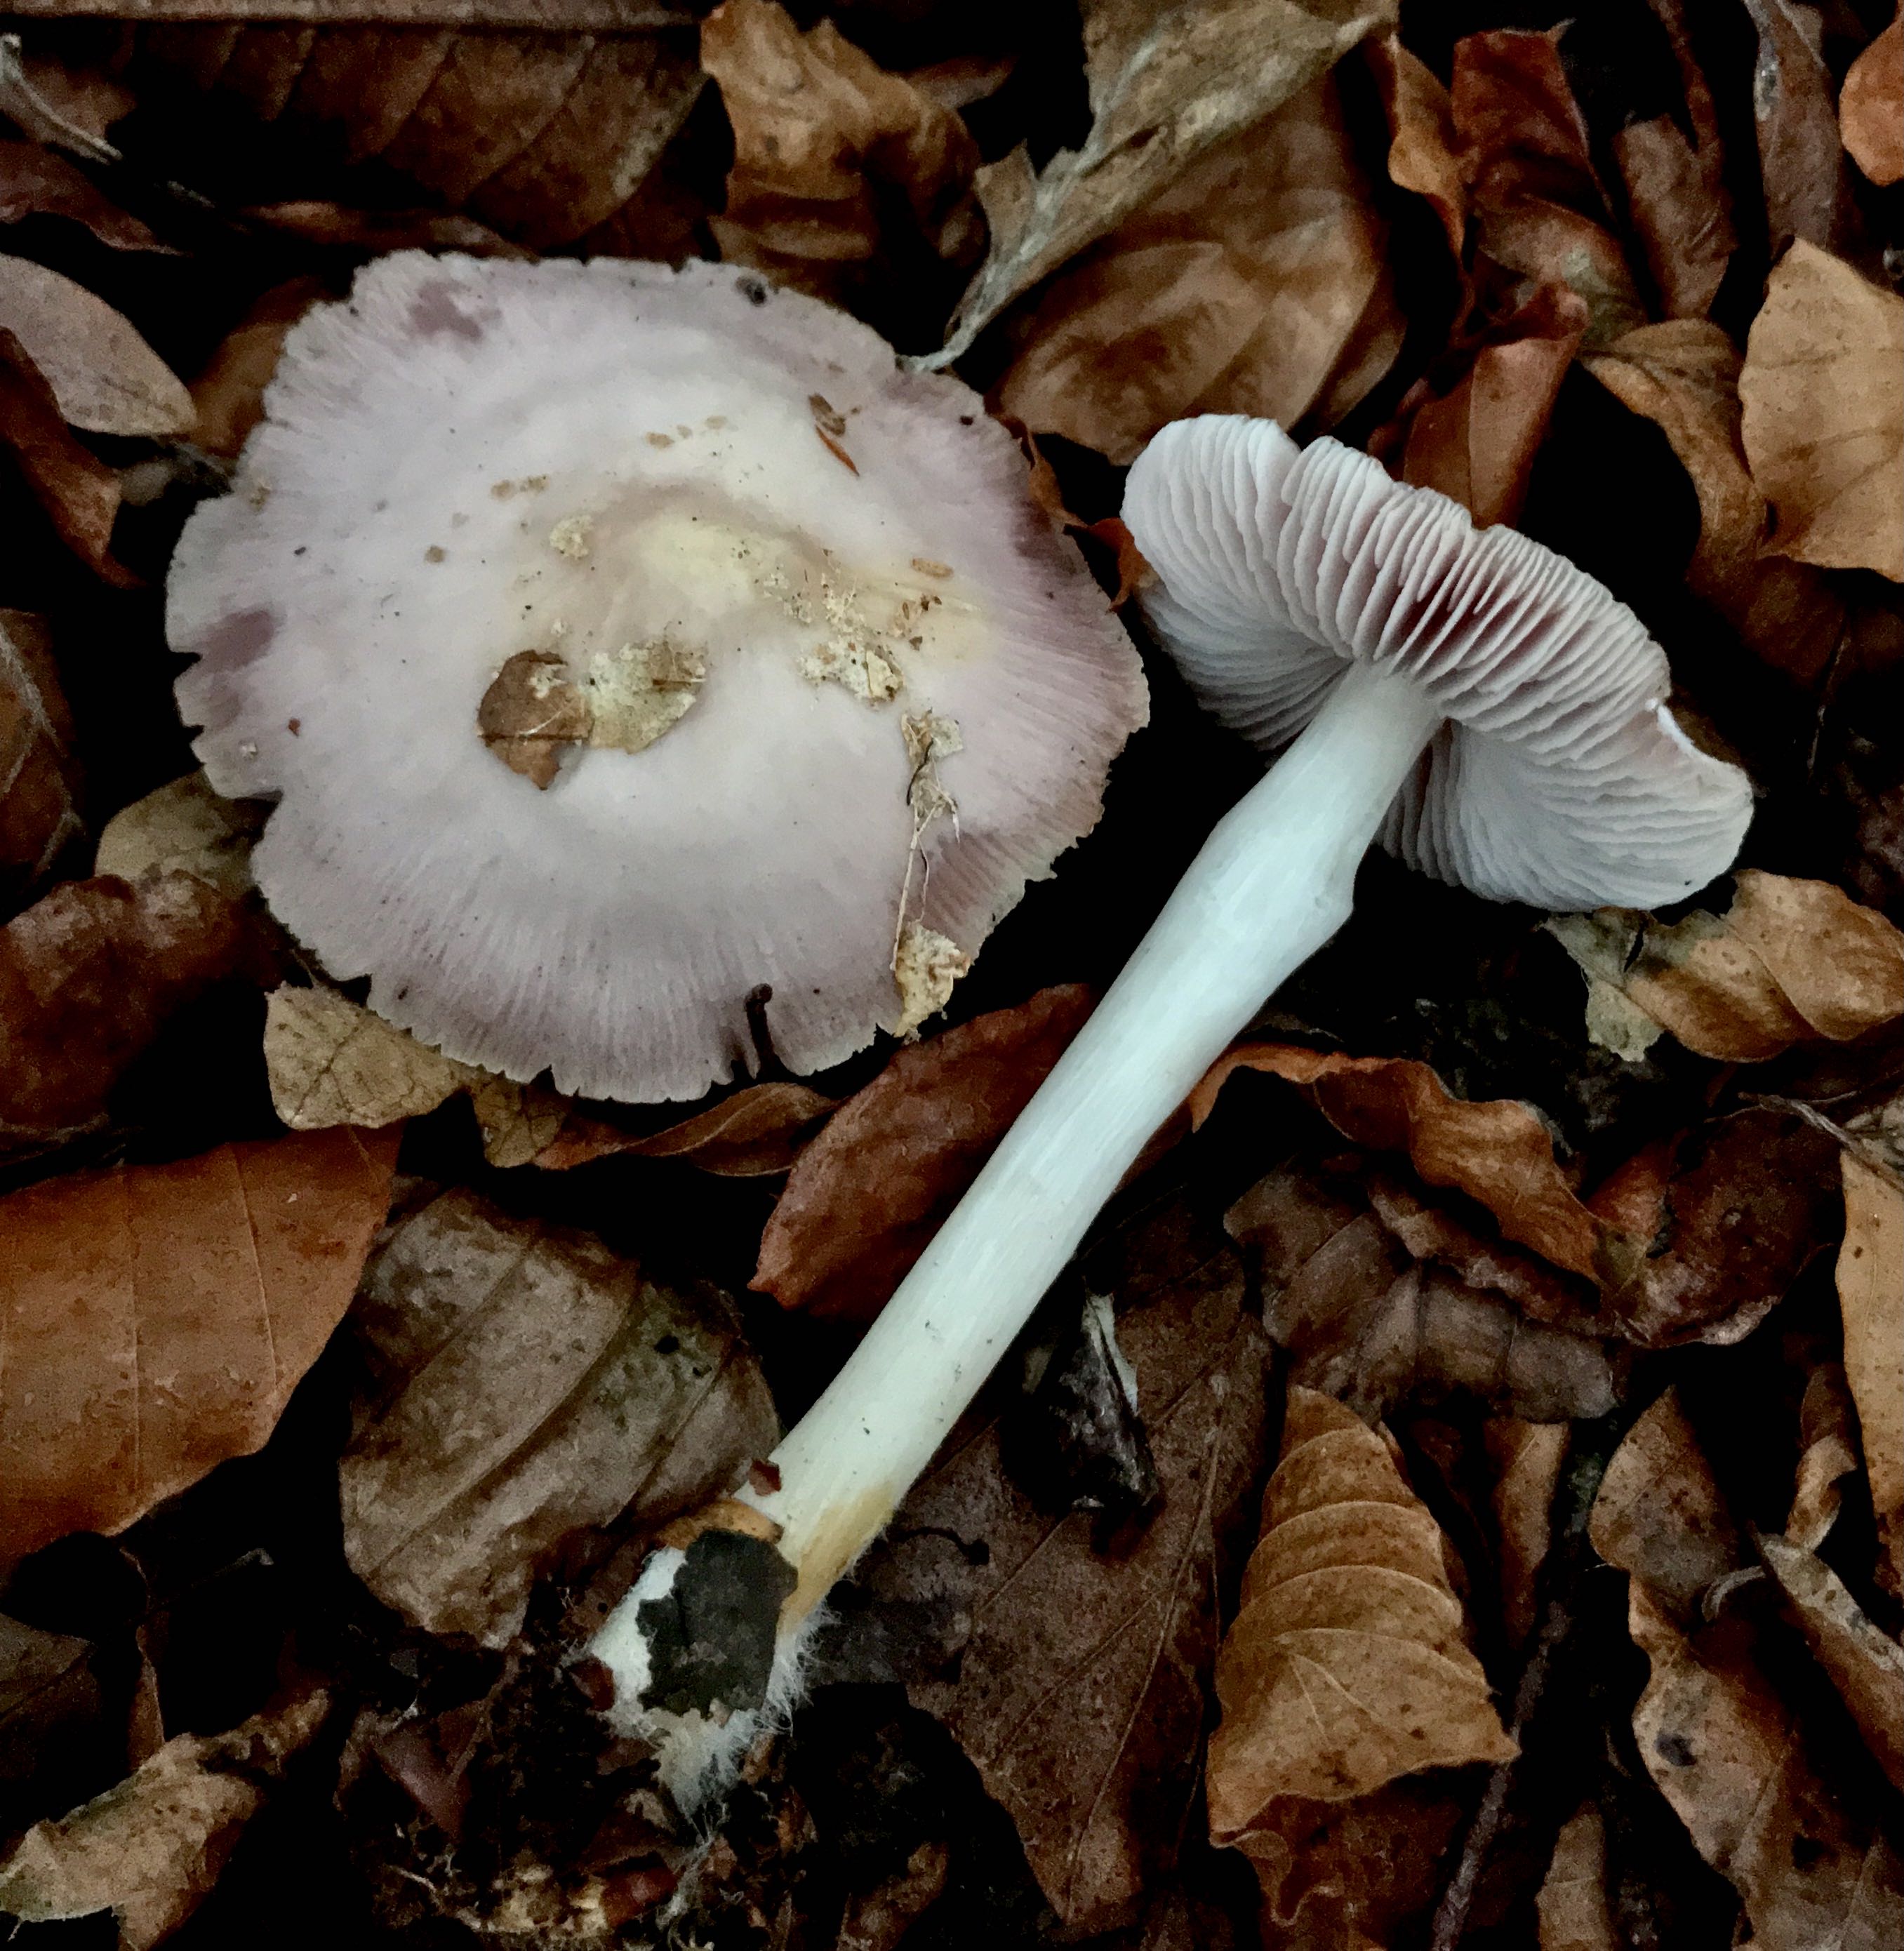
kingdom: Fungi
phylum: Basidiomycota
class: Agaricomycetes
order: Agaricales
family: Mycenaceae
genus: Mycena
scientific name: Mycena rosea
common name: rosa huesvamp
